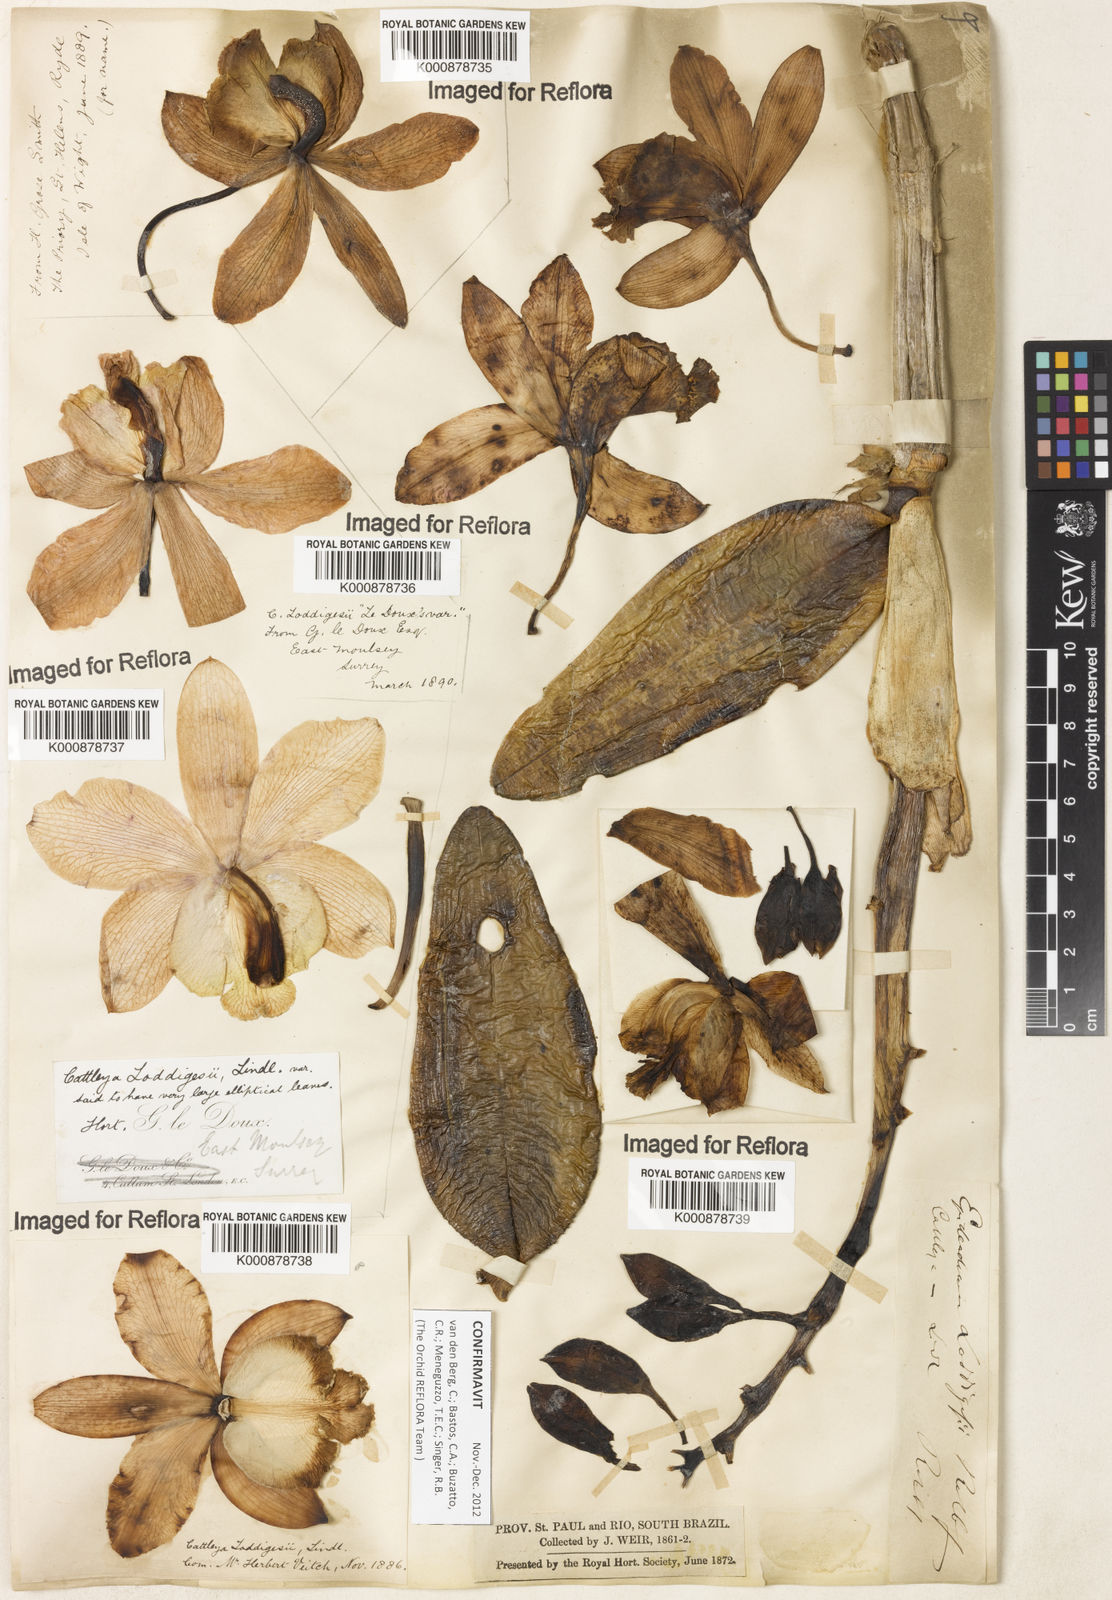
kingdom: Plantae
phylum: Tracheophyta
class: Liliopsida
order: Asparagales
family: Orchidaceae
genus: Cattleya
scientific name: Cattleya loddigesii
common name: Loddiges's cattleya
